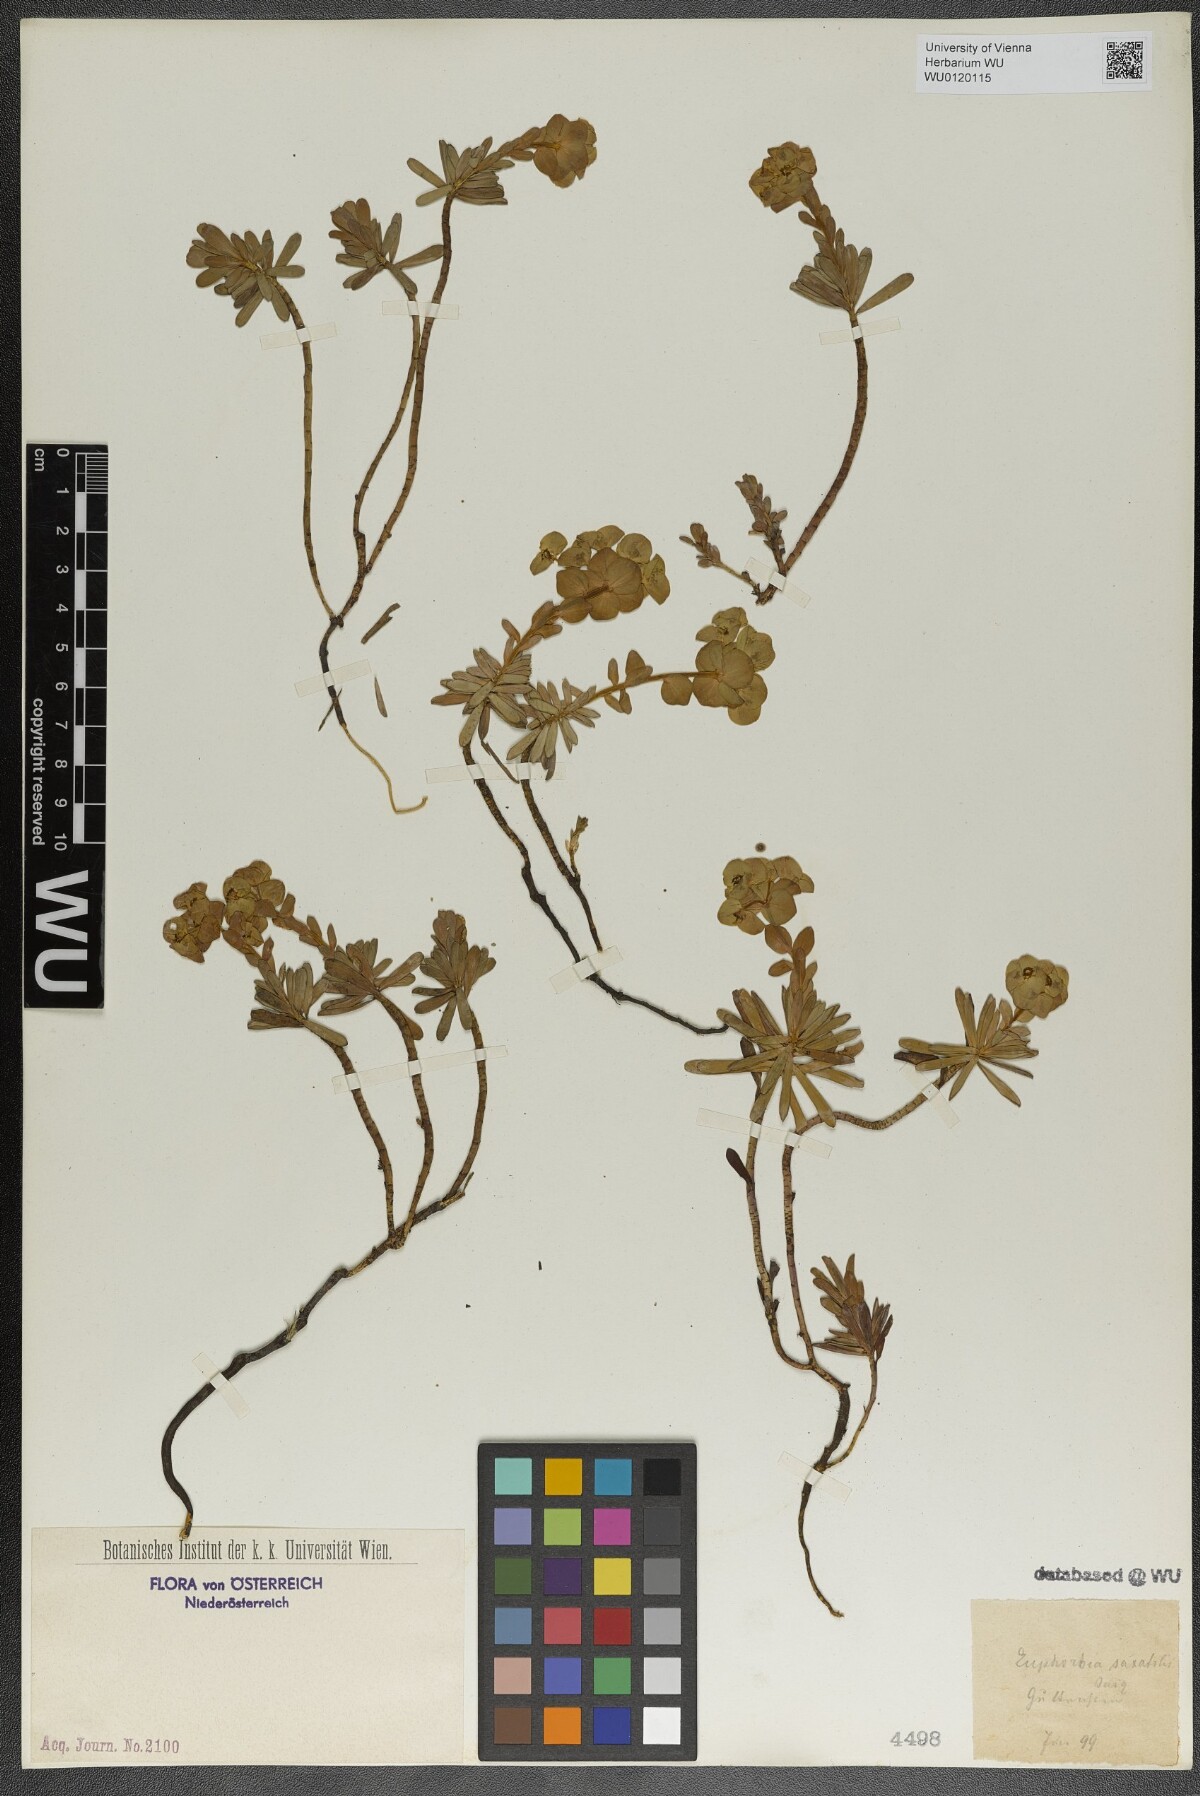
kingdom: Plantae
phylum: Tracheophyta
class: Magnoliopsida
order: Malpighiales
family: Euphorbiaceae
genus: Euphorbia
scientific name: Euphorbia saxatilis
